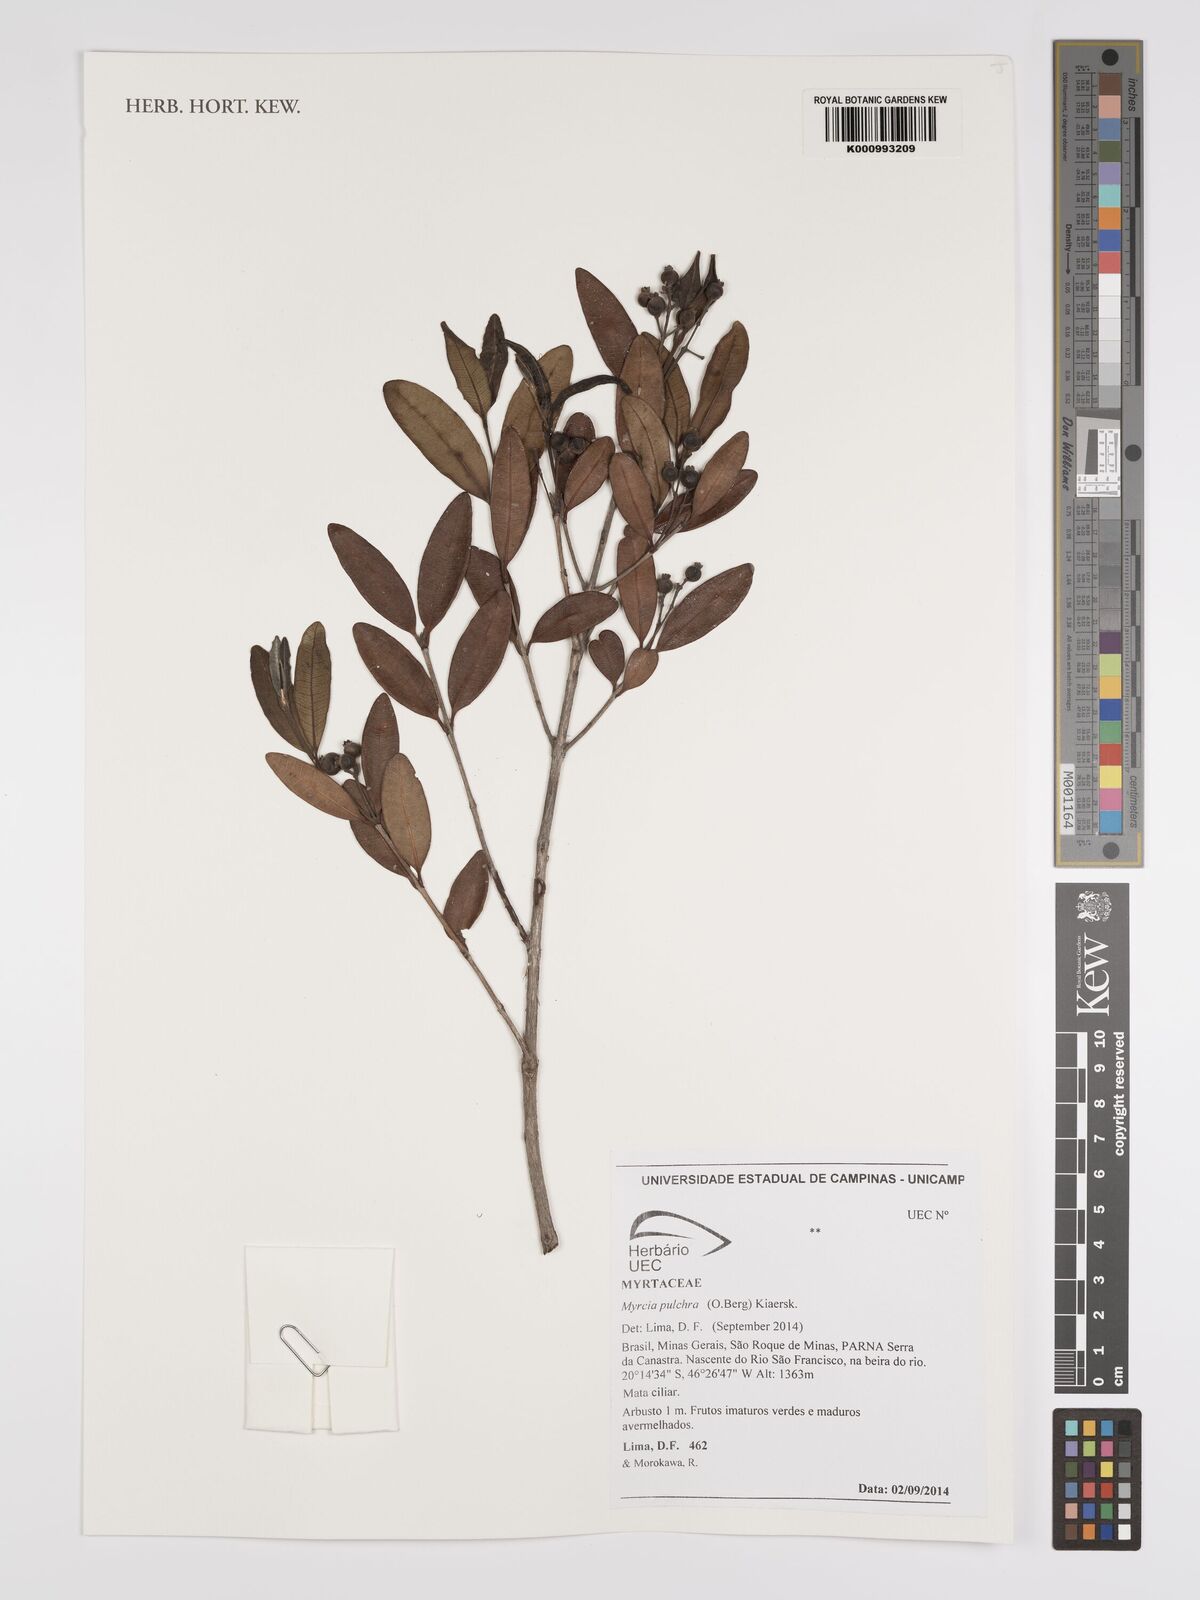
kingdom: Plantae
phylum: Tracheophyta
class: Magnoliopsida
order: Myrtales
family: Myrtaceae
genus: Myrcia
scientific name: Myrcia pulchra
